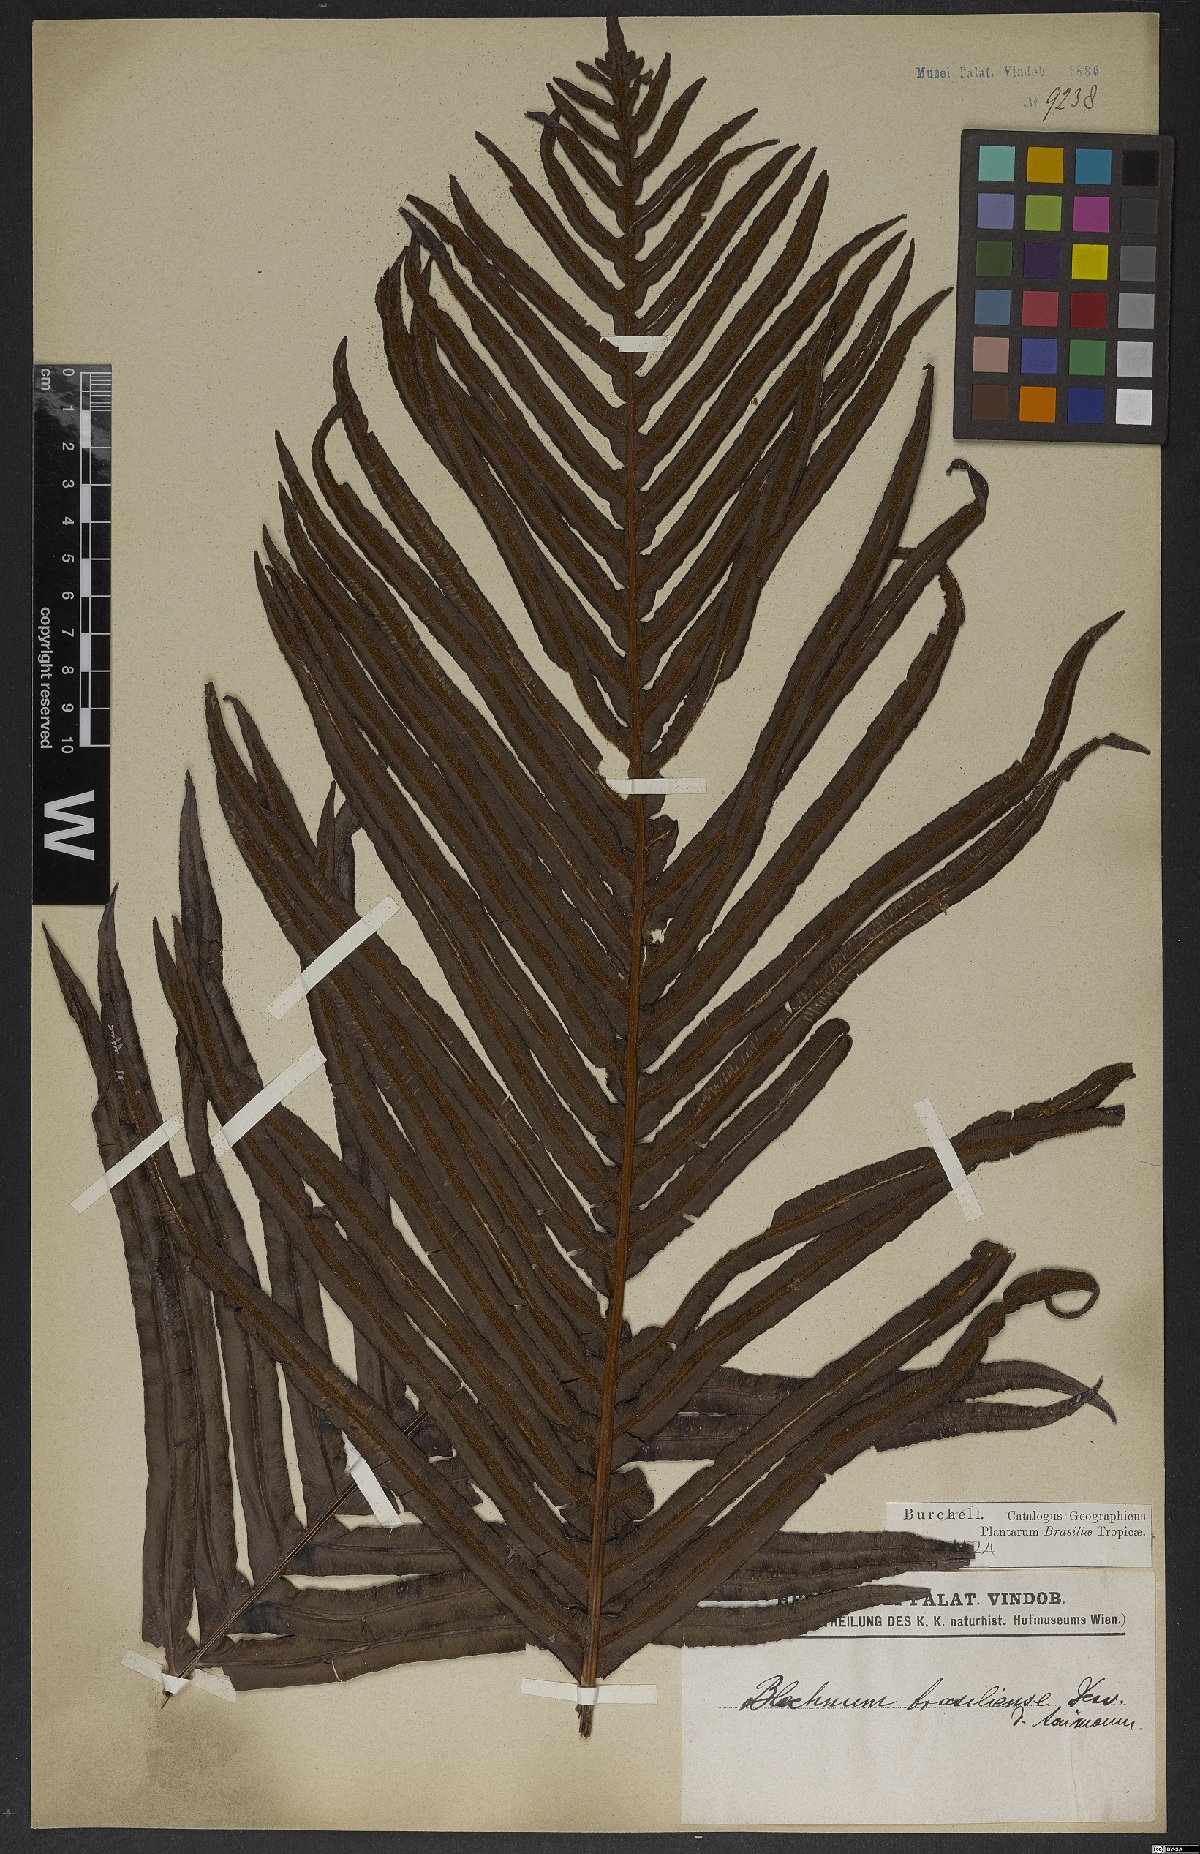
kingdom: Plantae
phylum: Tracheophyta
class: Polypodiopsida
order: Polypodiales
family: Blechnaceae
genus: Neoblechnum
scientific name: Neoblechnum brasiliense
